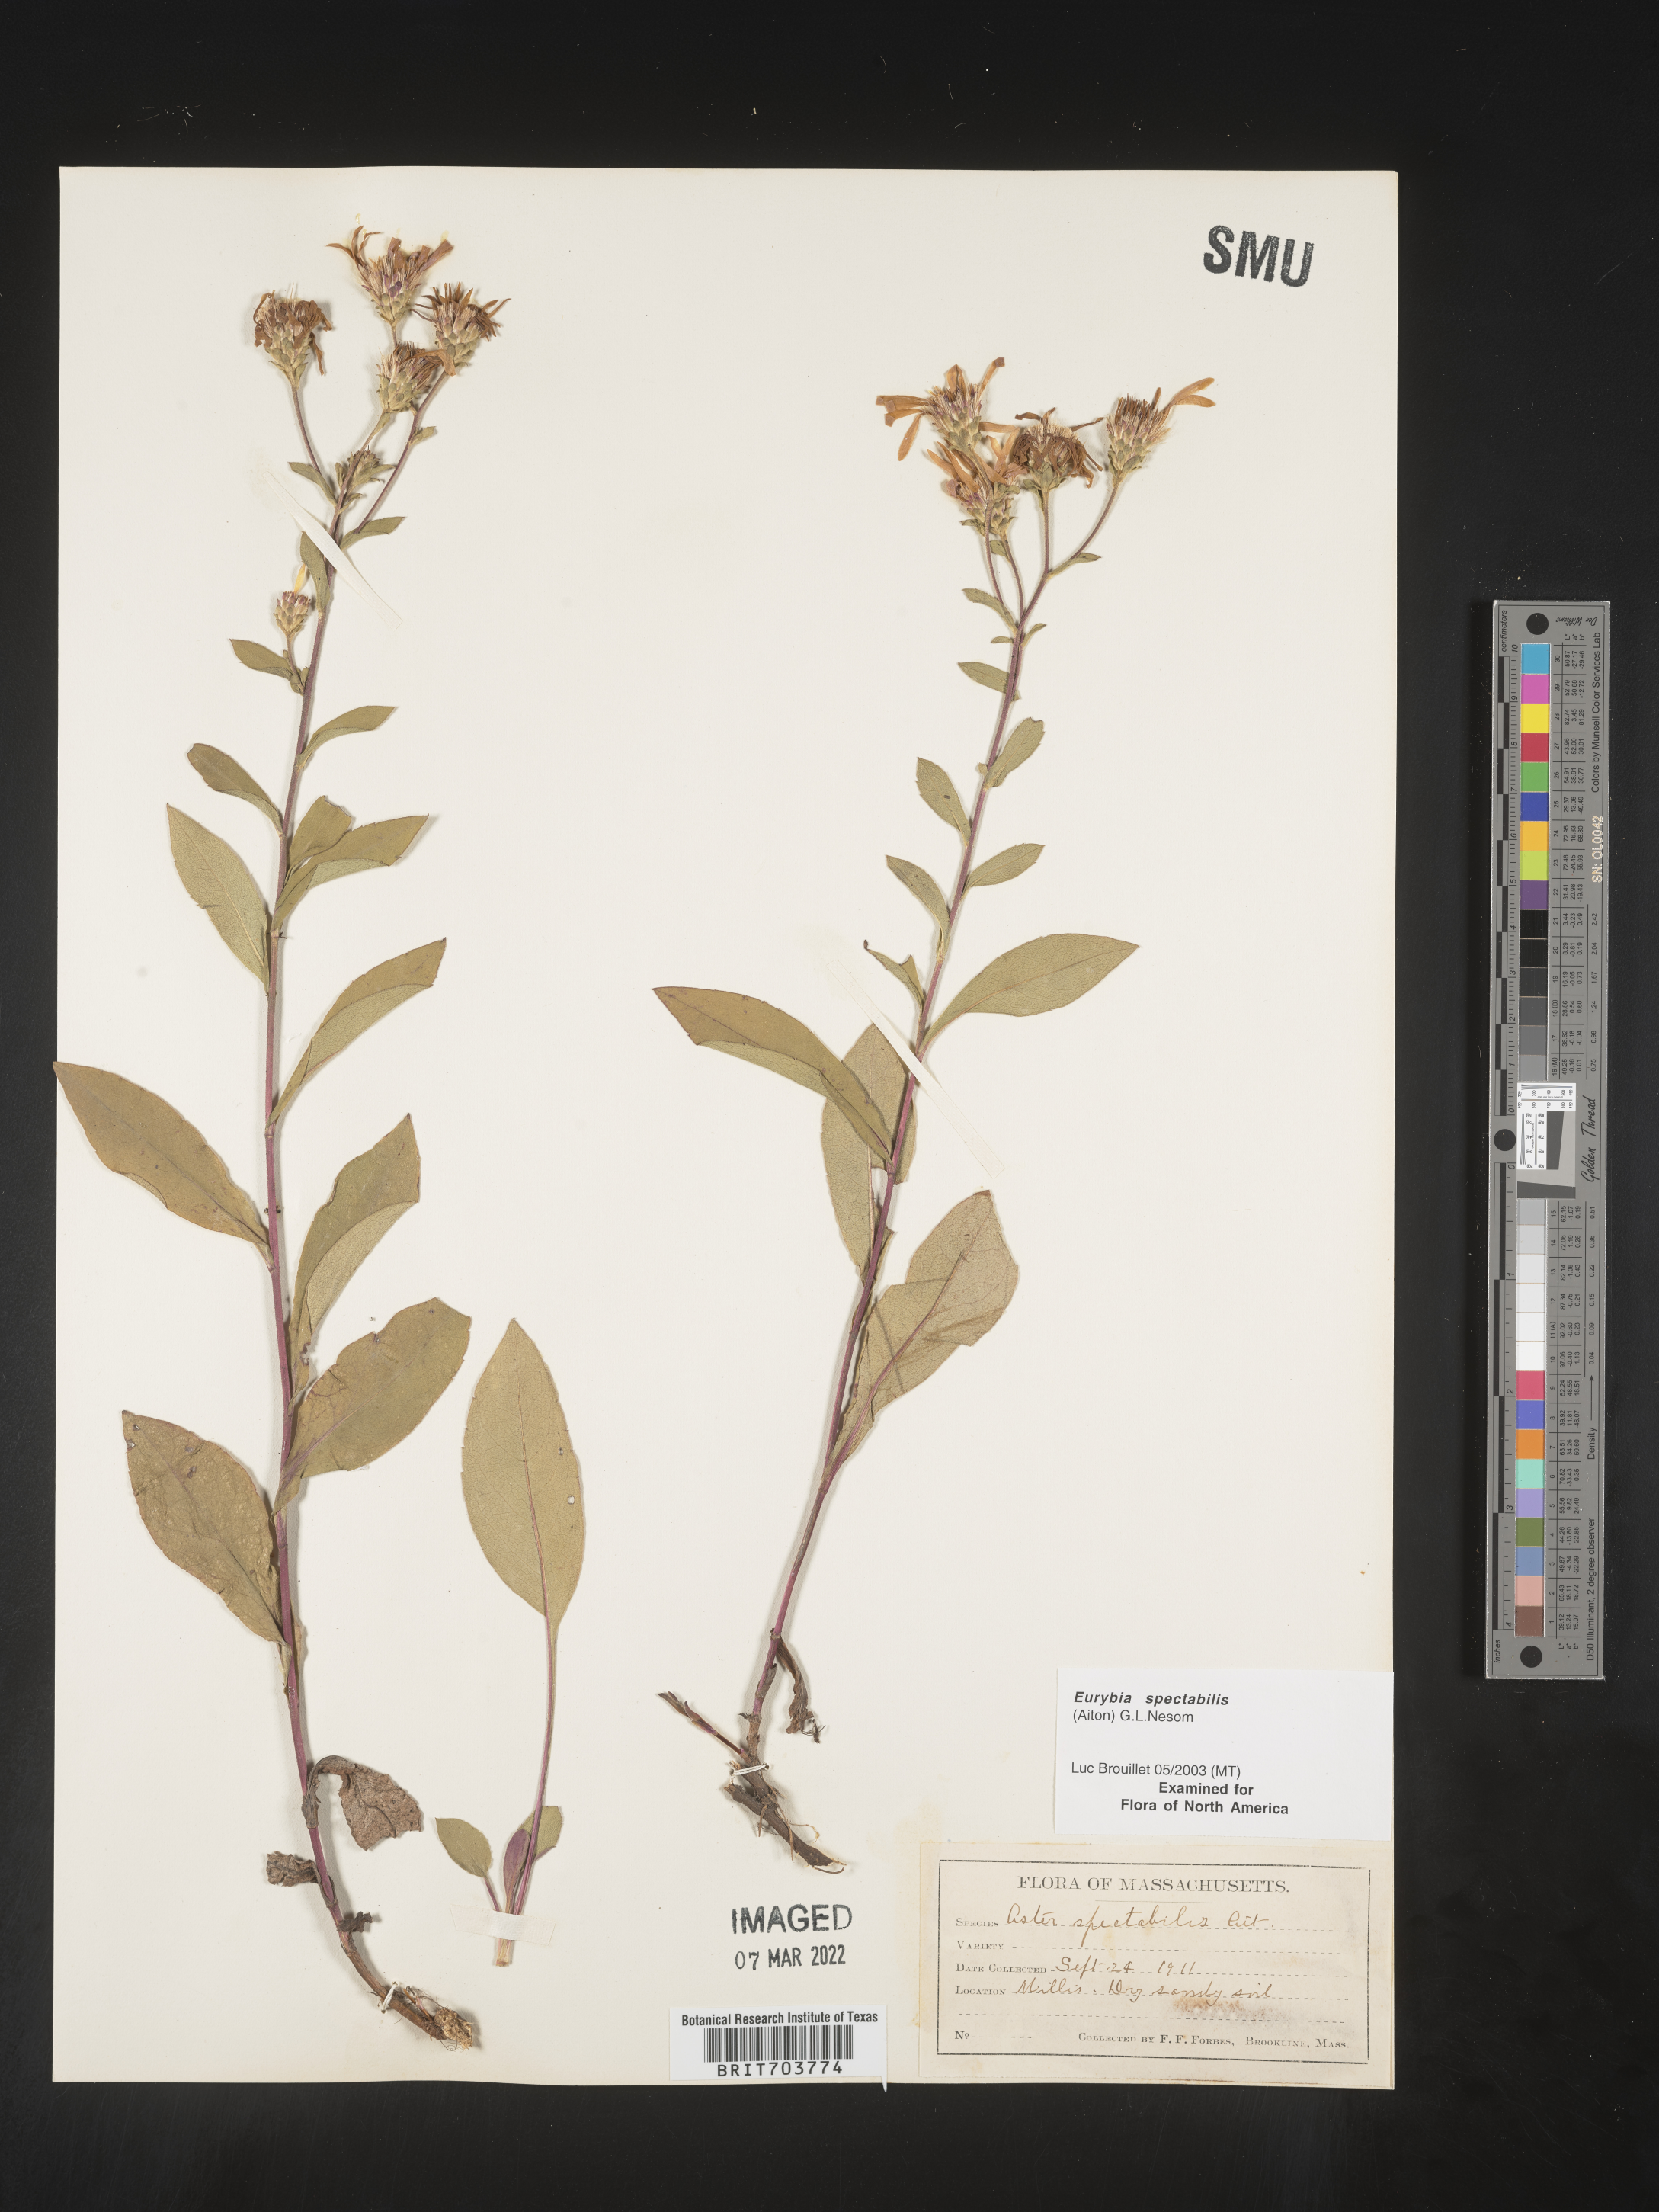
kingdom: Plantae
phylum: Tracheophyta
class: Magnoliopsida
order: Asterales
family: Asteraceae
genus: Eurybia
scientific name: Eurybia spectabilis
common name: Low showy aster
